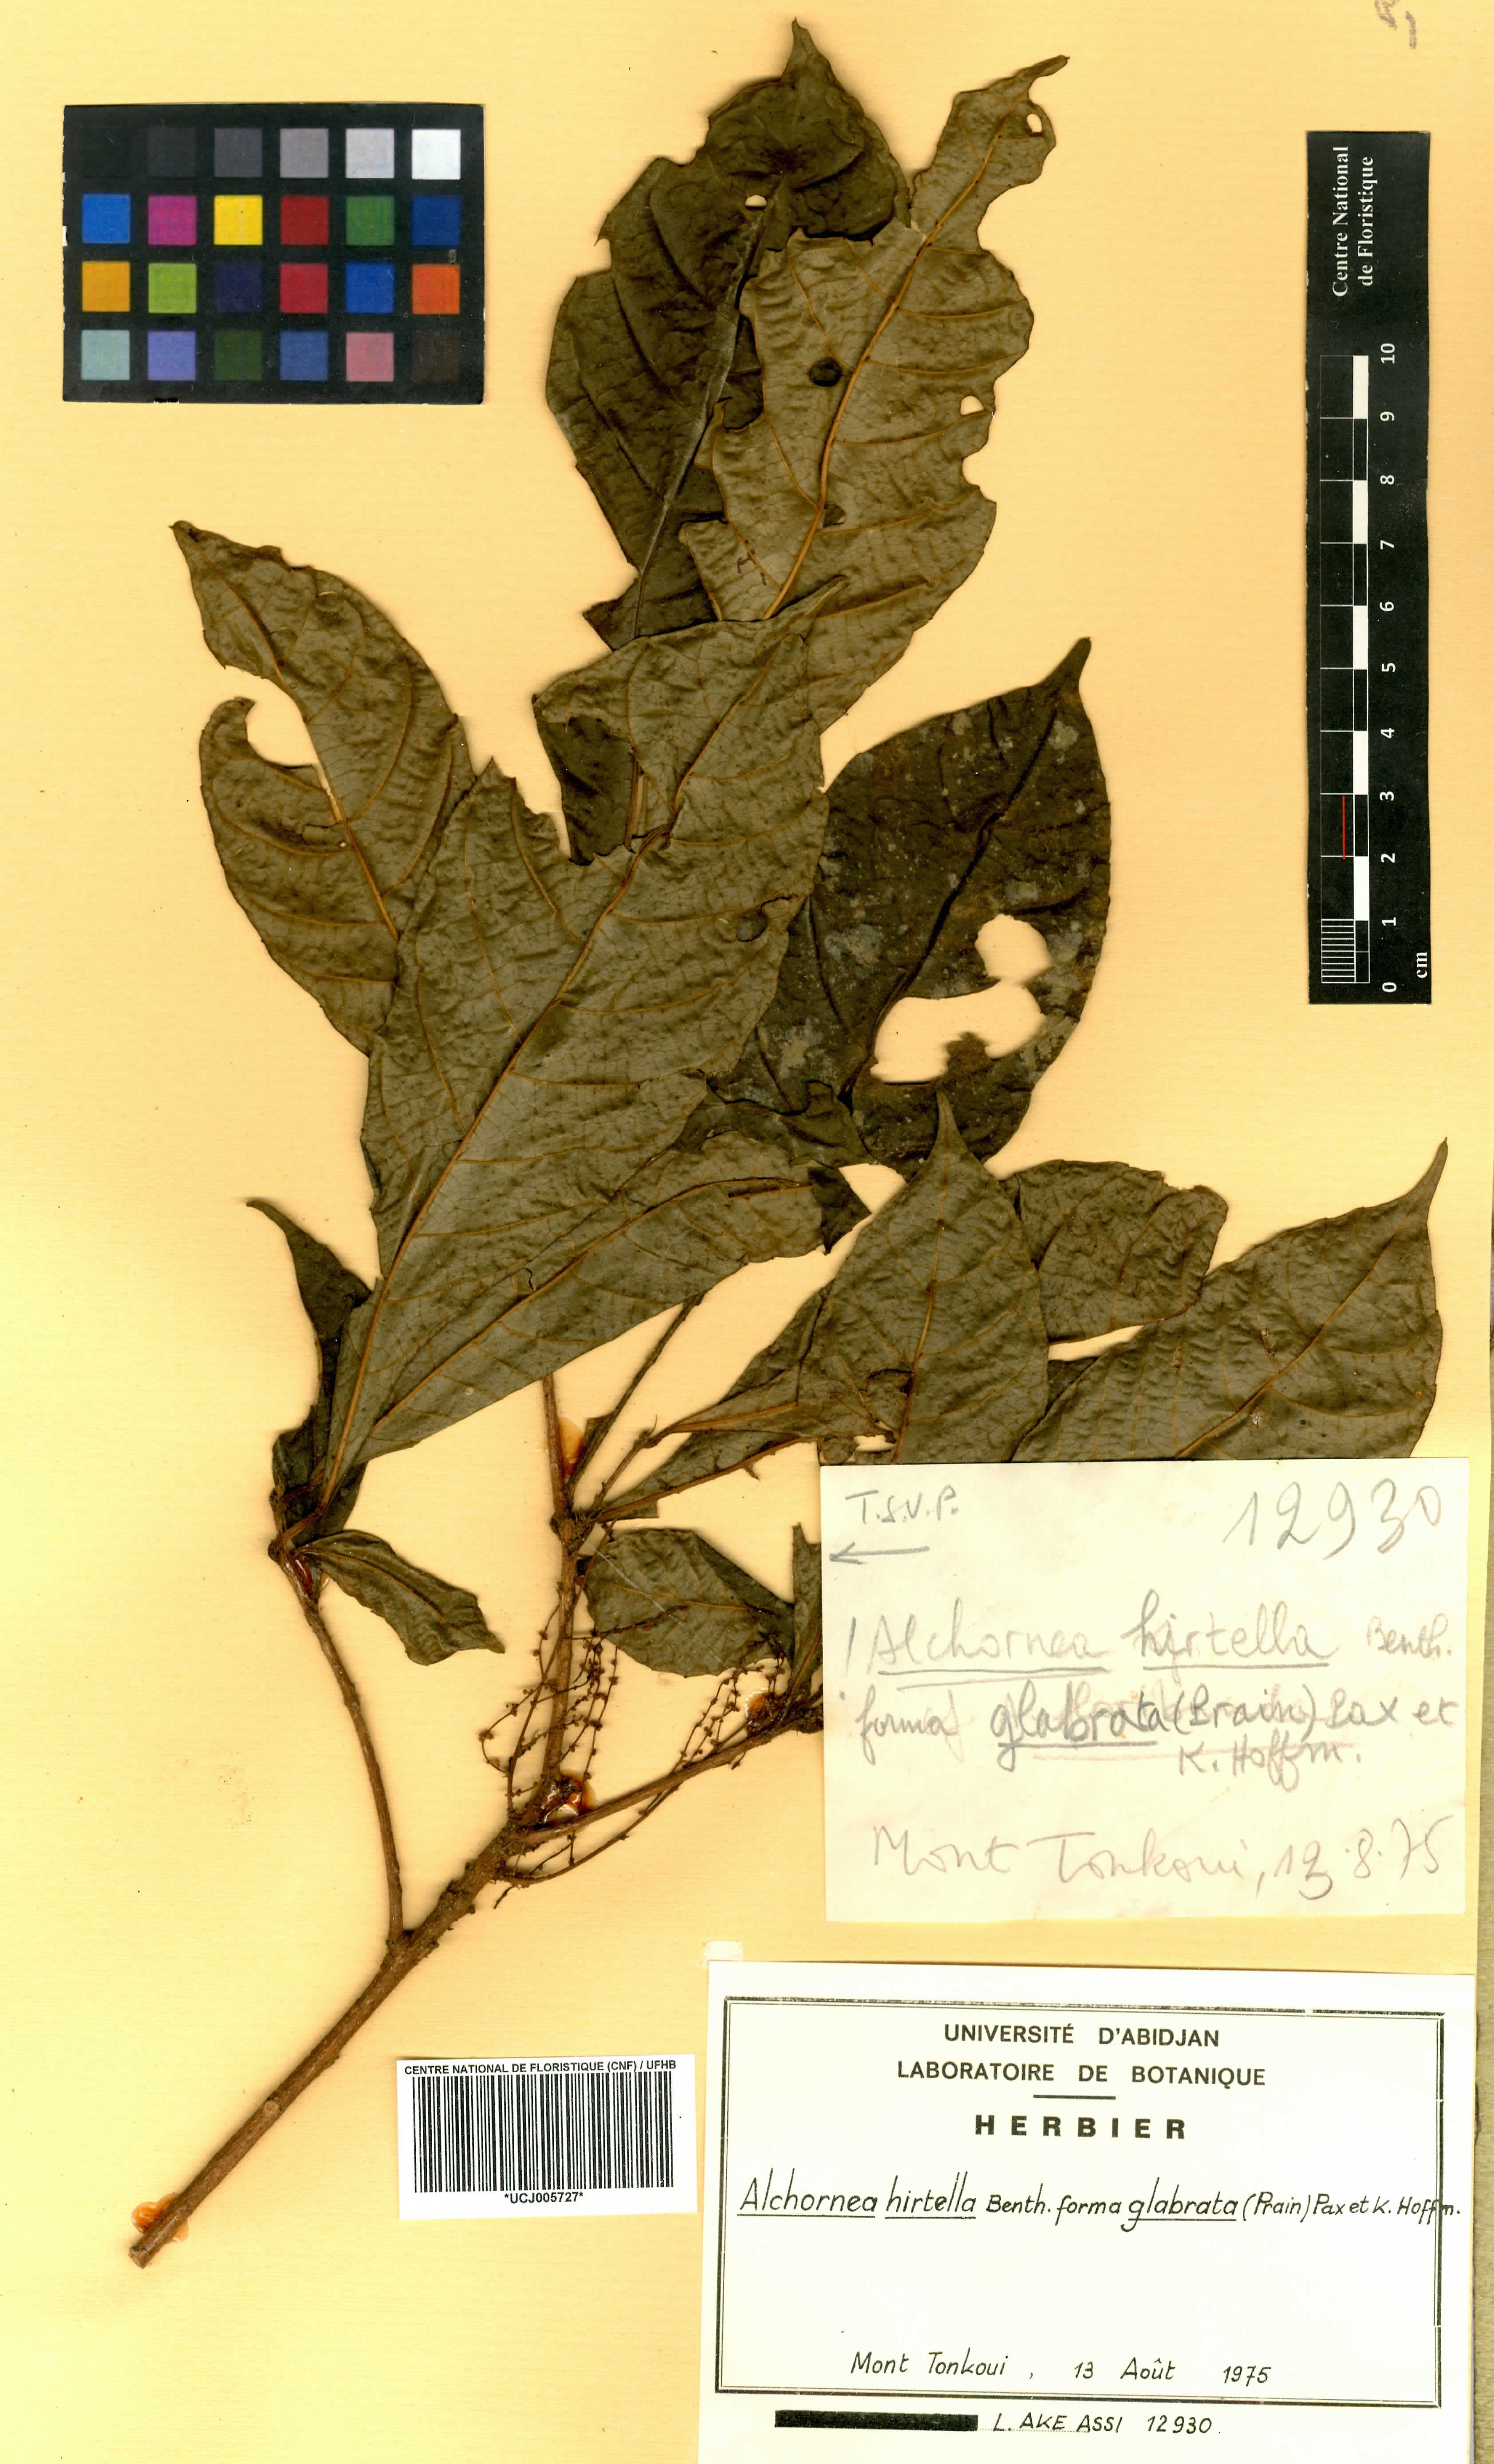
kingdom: Plantae
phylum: Tracheophyta
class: Magnoliopsida
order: Malpighiales
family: Euphorbiaceae
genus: Alchornea
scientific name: Alchornea hirtella
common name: Forest bead-string
